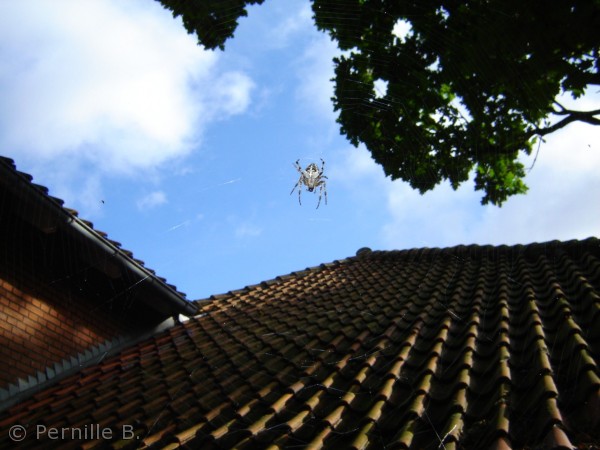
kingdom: Animalia
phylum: Arthropoda
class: Arachnida
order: Araneae
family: Araneidae
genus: Araneus
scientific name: Araneus diadematus
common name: Korsedderkop
